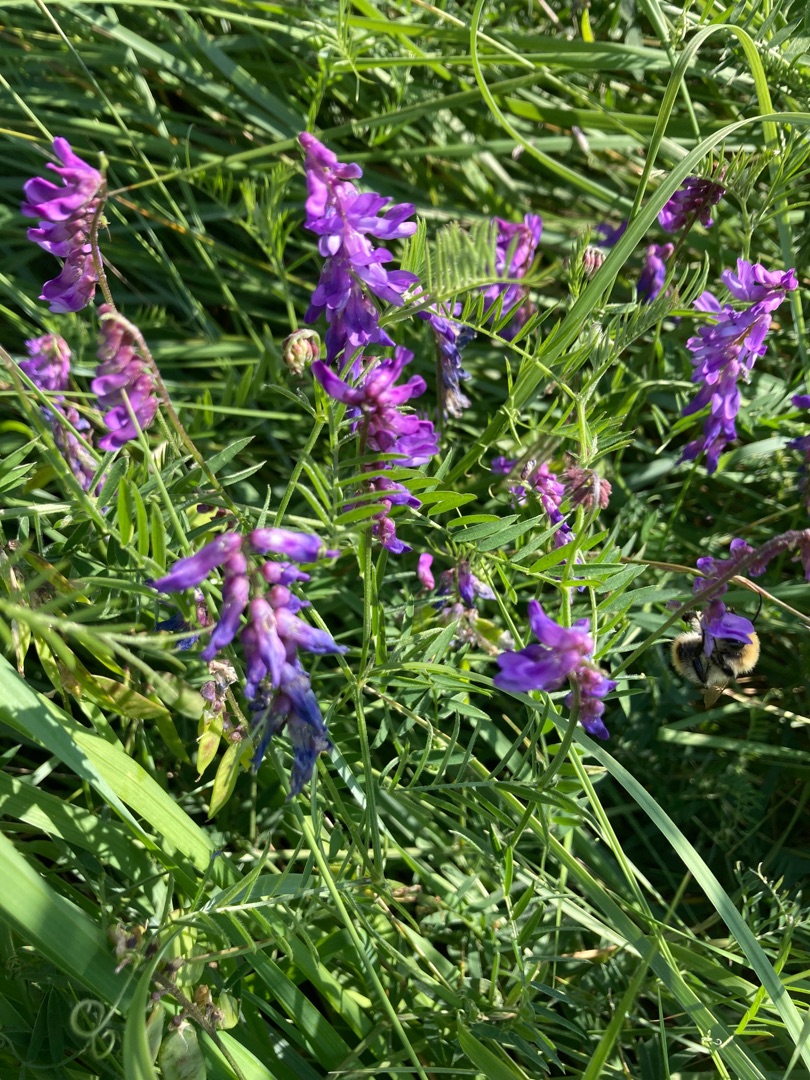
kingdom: Plantae
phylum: Tracheophyta
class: Magnoliopsida
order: Fabales
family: Fabaceae
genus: Vicia
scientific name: Vicia cracca
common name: Muse-vikke
